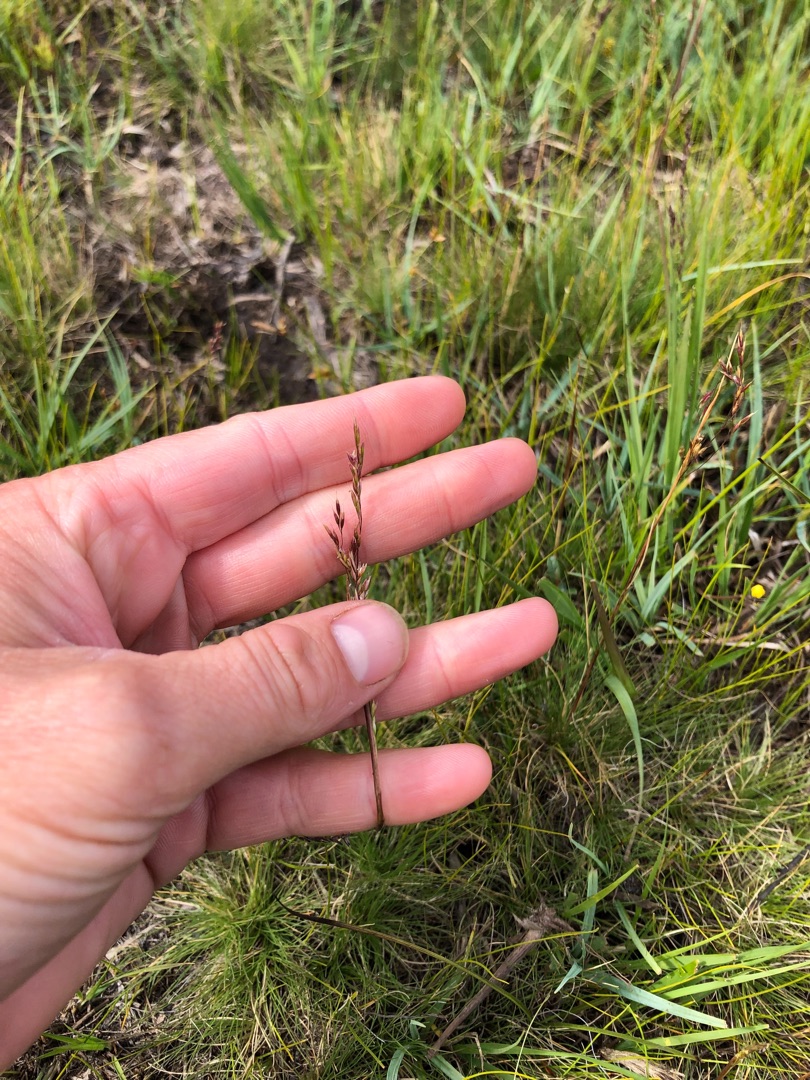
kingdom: Plantae
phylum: Tracheophyta
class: Liliopsida
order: Poales
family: Poaceae
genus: Deschampsia
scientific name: Deschampsia setacea
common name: Fin bunke
